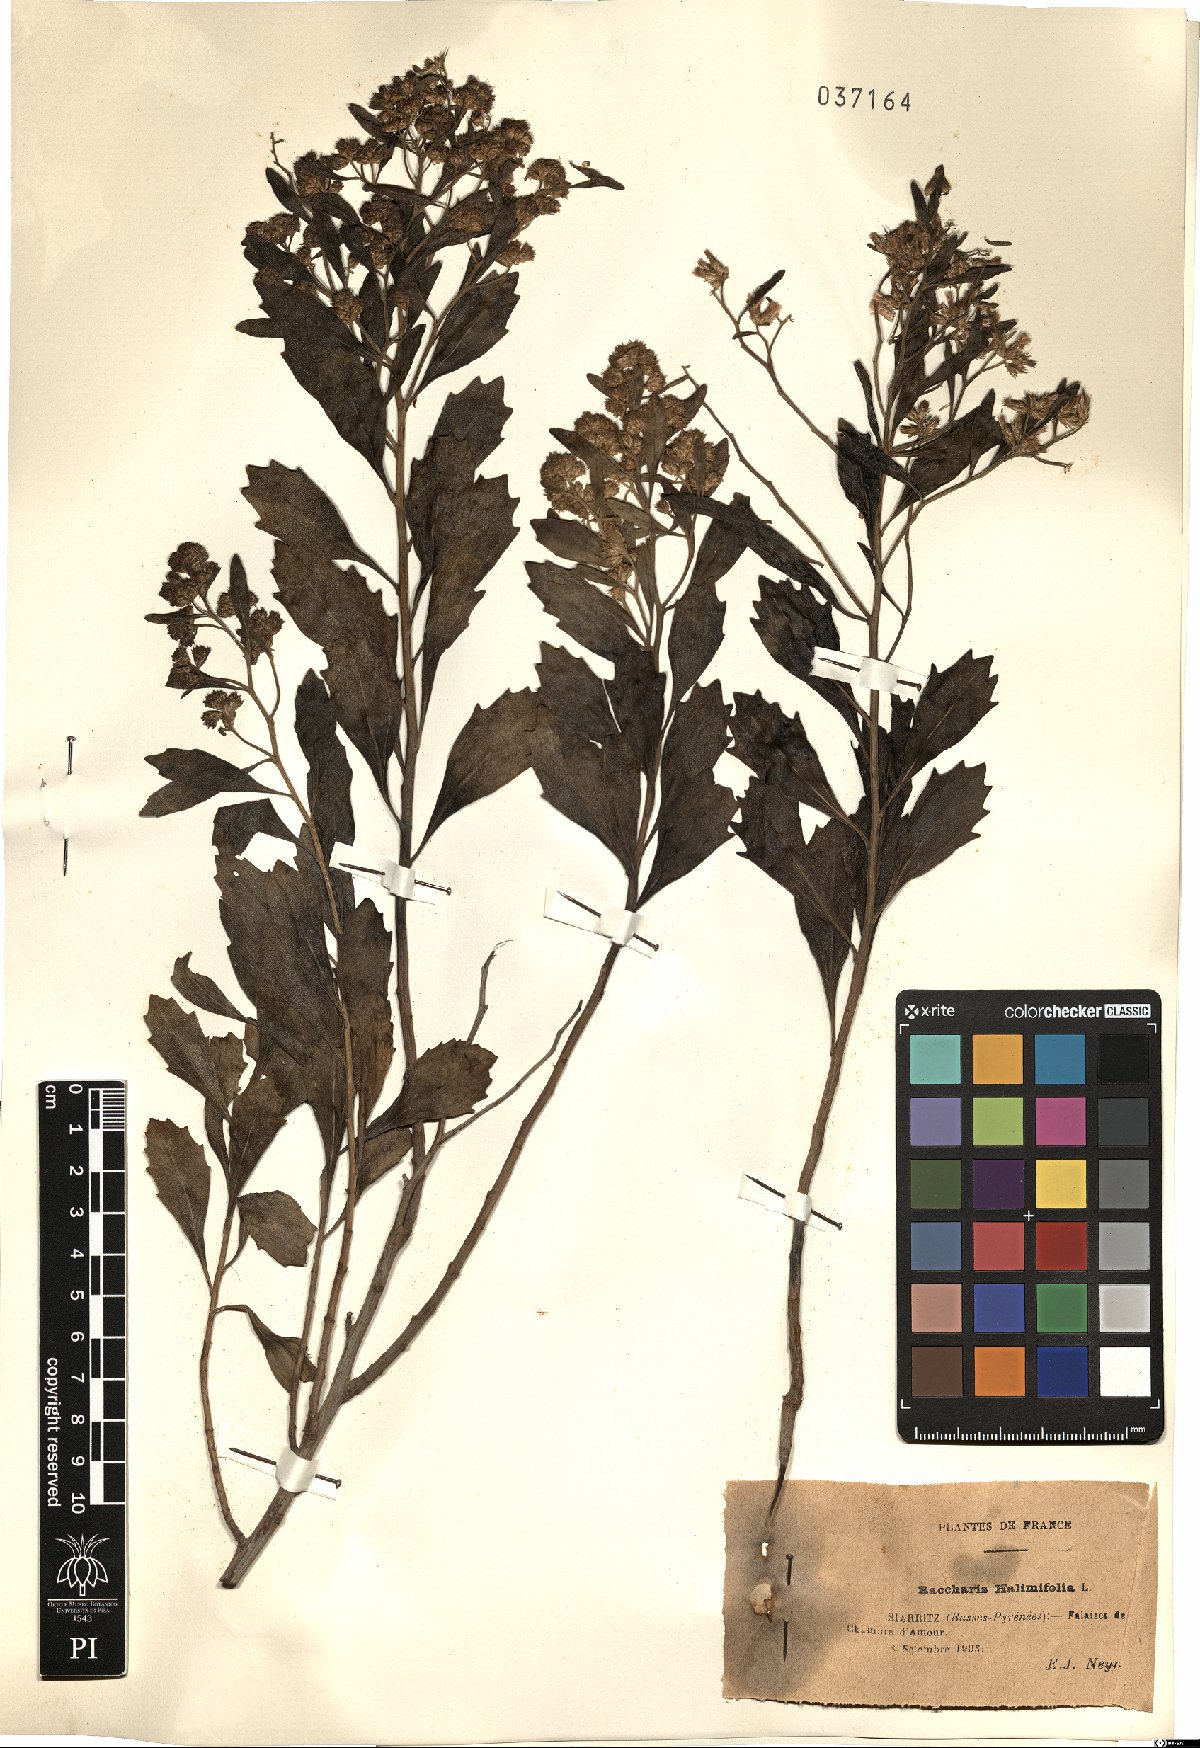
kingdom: Plantae
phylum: Tracheophyta
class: Magnoliopsida
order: Asterales
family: Asteraceae
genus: Baccharis
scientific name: Baccharis halimifolia
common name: Eastern baccharis
